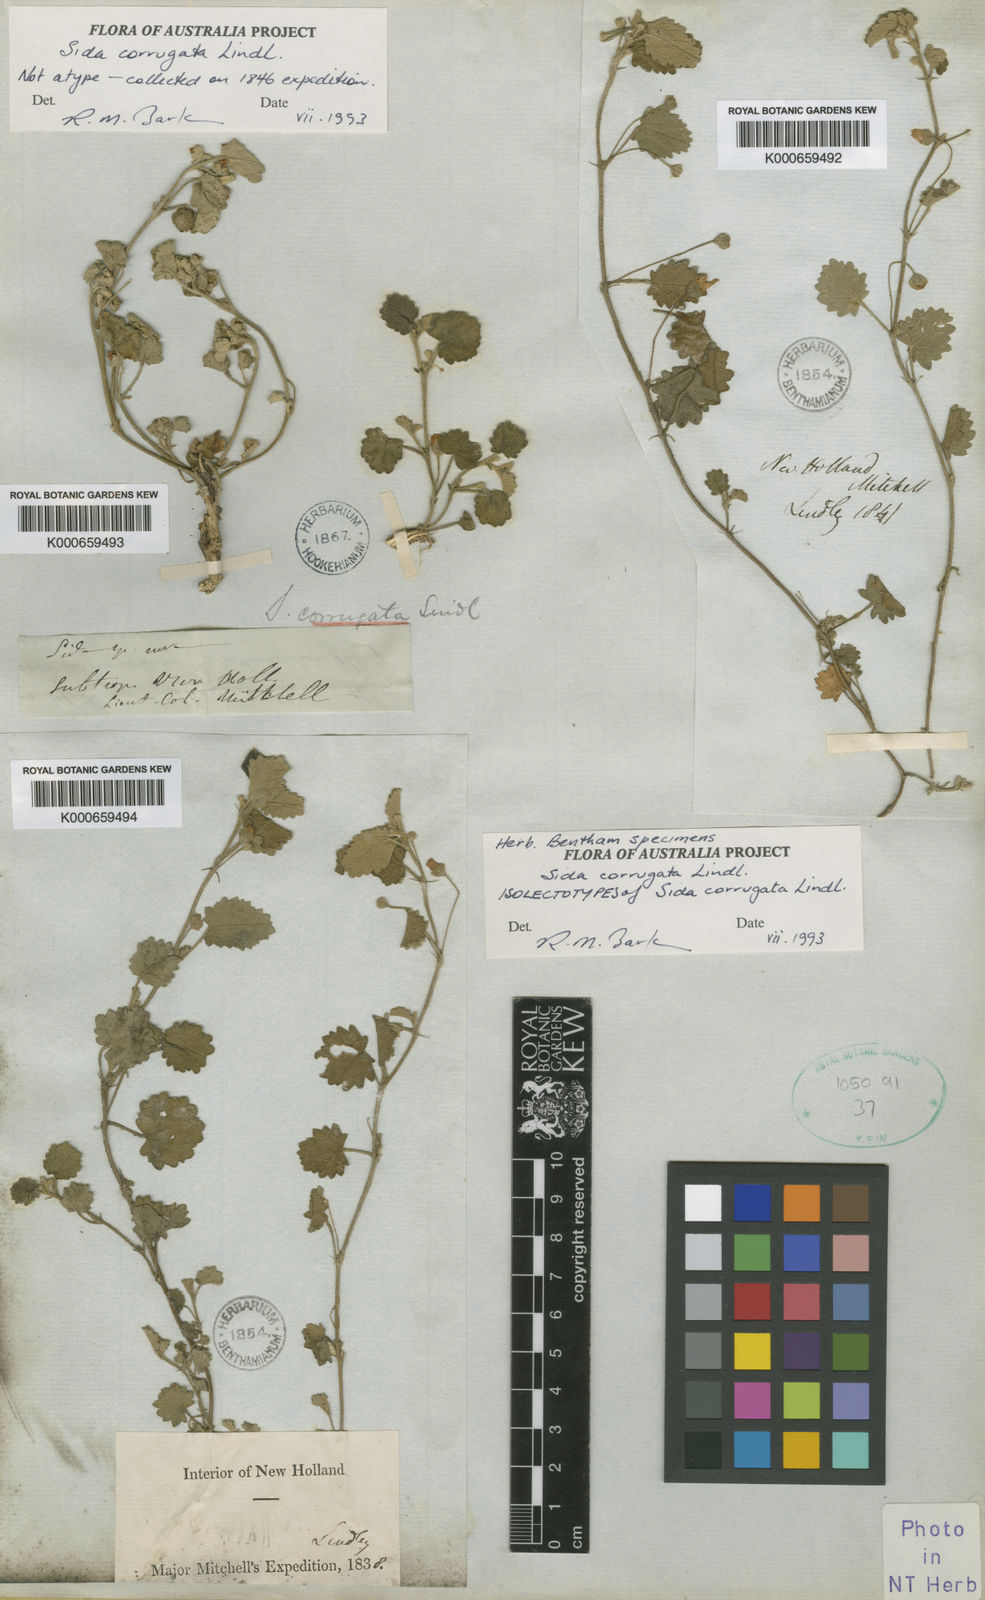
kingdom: Plantae
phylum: Tracheophyta
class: Magnoliopsida
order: Malvales
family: Malvaceae
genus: Sida
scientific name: Sida corrugata
